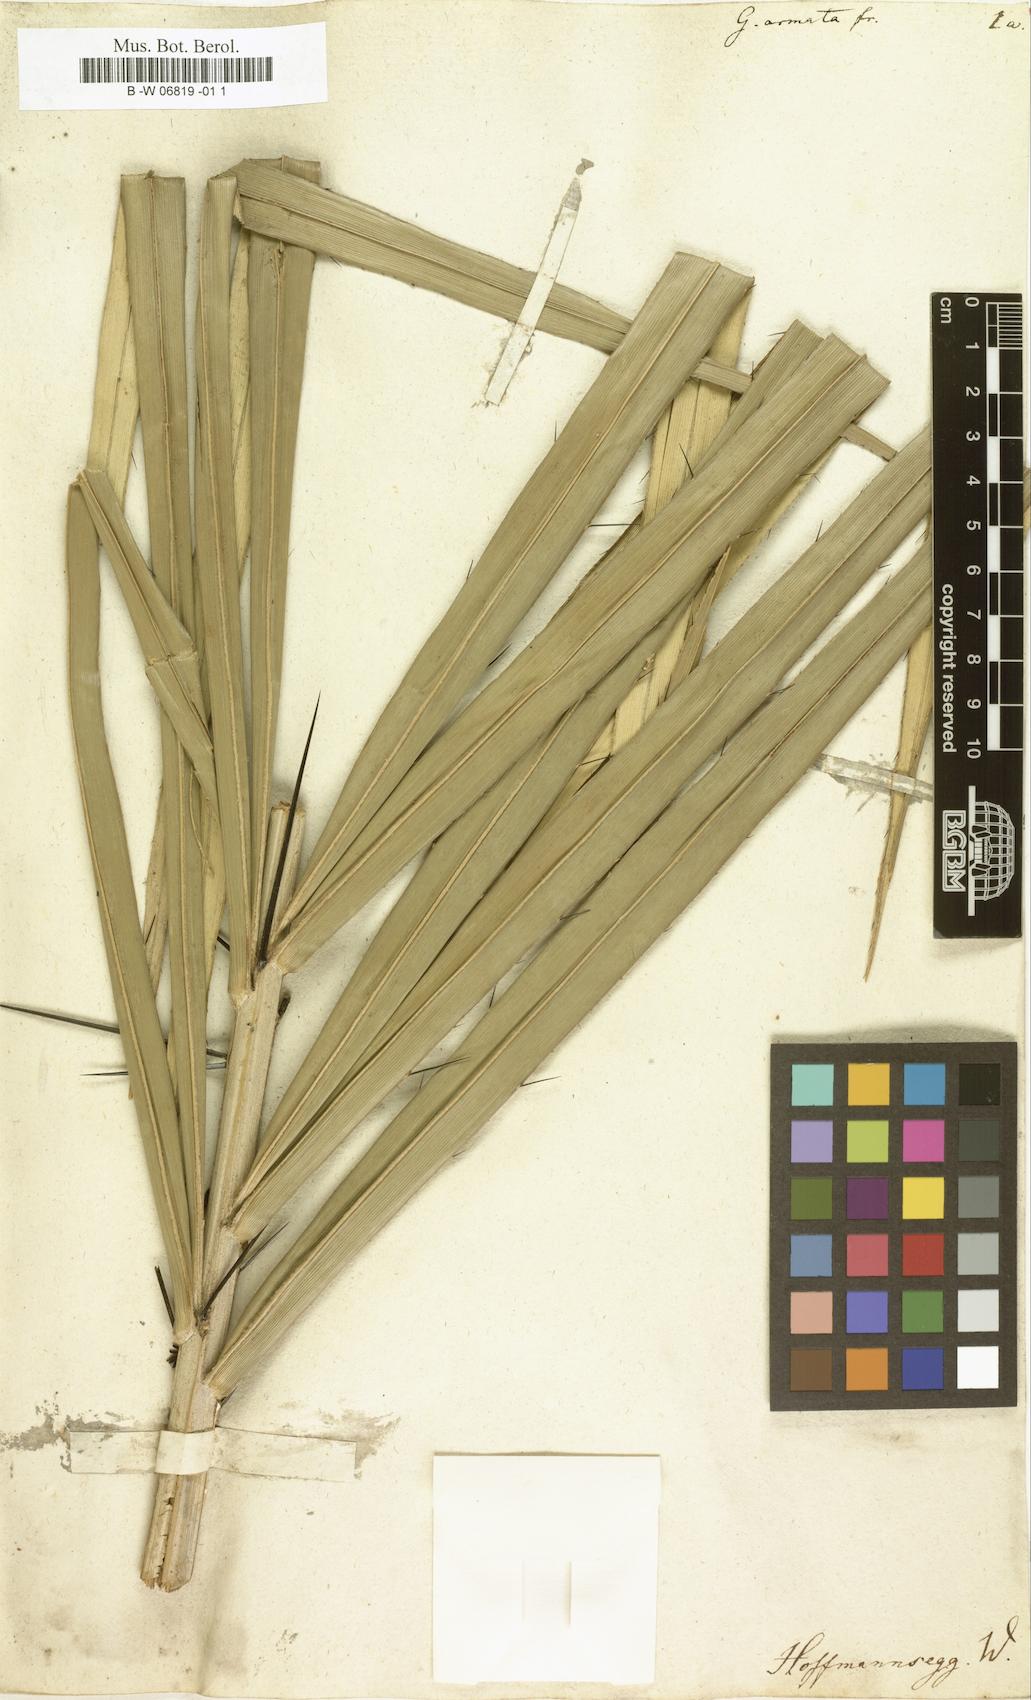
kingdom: Plantae
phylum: Tracheophyta
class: Magnoliopsida
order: Rosales
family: Urticaceae
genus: Girardinia
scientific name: Girardinia diversifolia
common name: Himalayan-nettle
